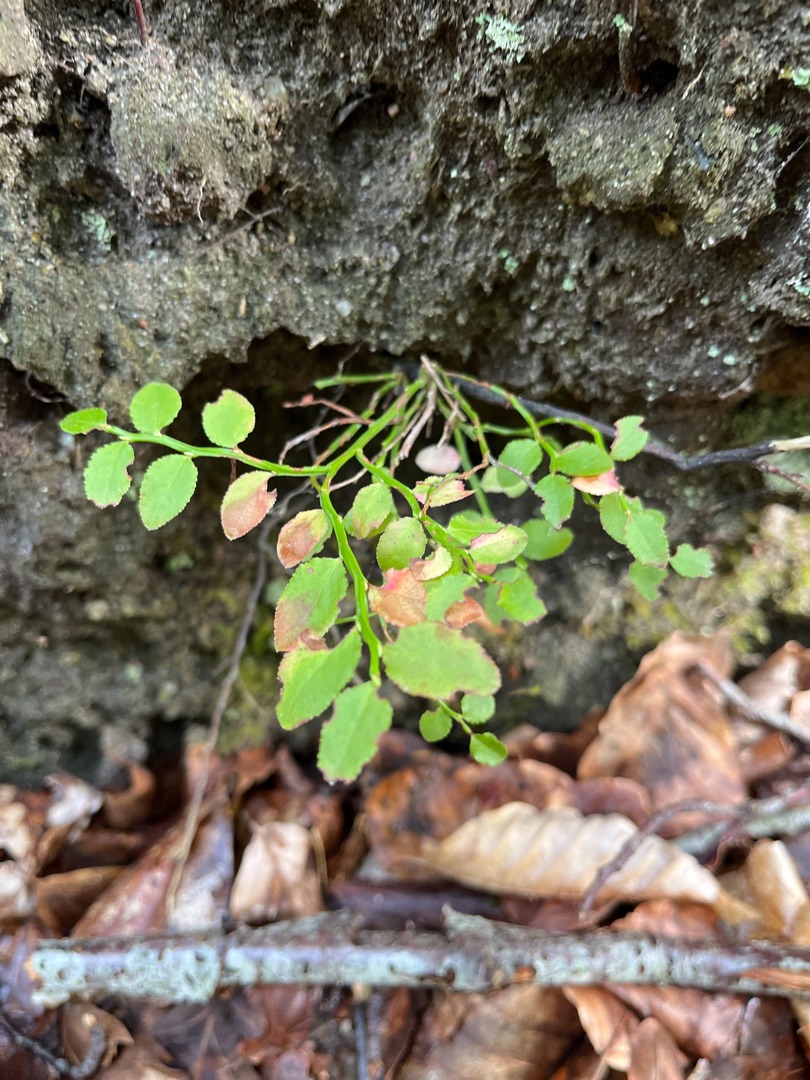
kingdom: Plantae
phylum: Tracheophyta
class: Magnoliopsida
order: Ericales
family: Ericaceae
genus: Vaccinium
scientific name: Vaccinium myrtillus
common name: Blåbær
